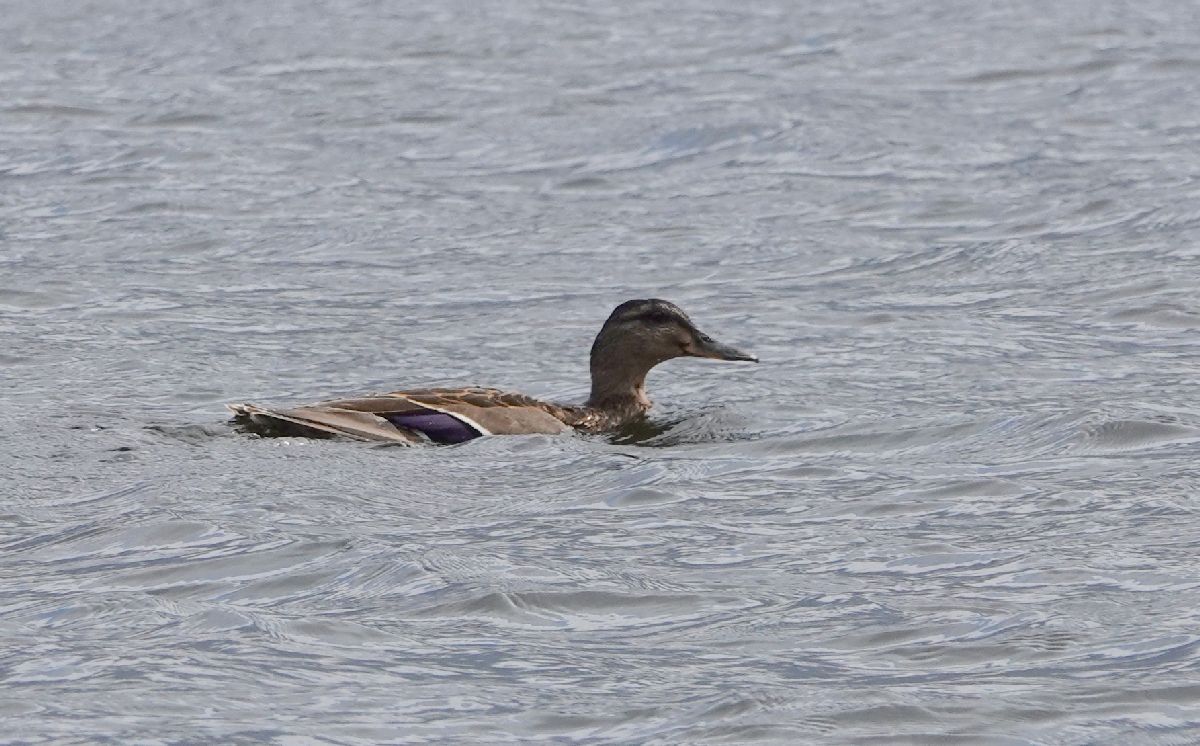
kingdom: Animalia
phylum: Chordata
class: Aves
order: Anseriformes
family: Anatidae
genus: Anas
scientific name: Anas platyrhynchos
